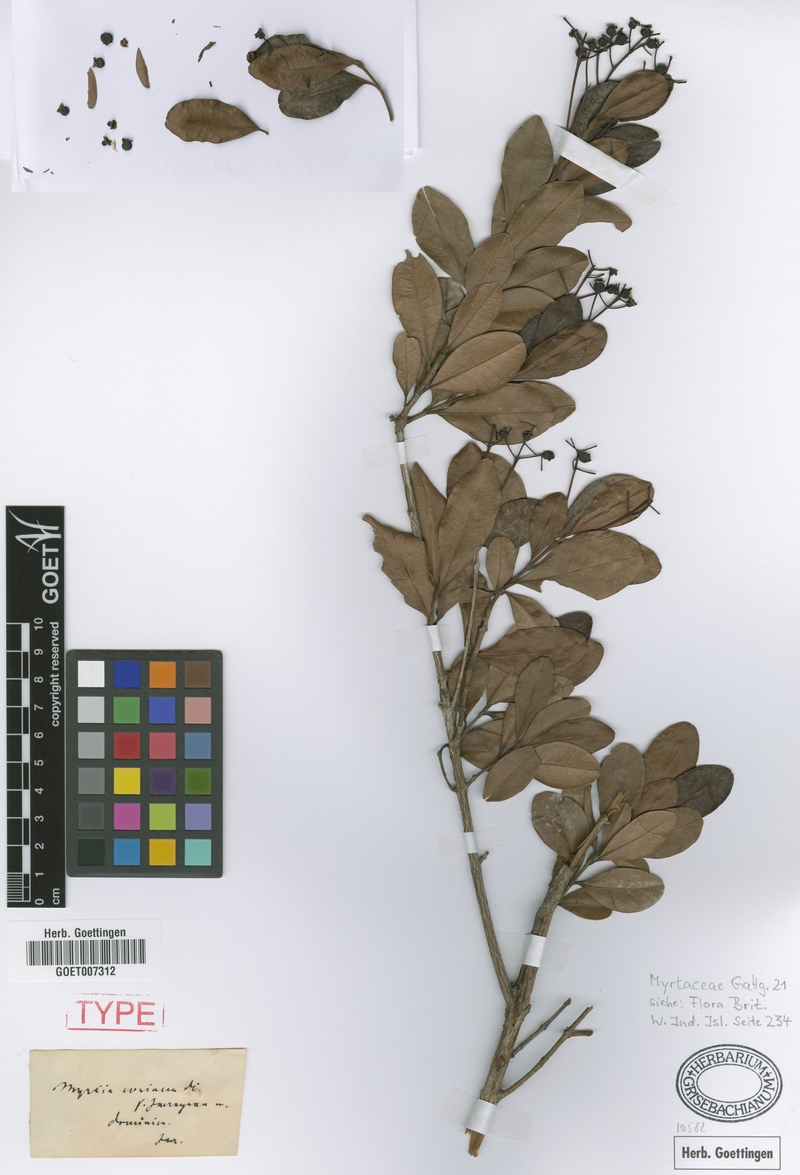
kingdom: Plantae
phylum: Tracheophyta
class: Magnoliopsida
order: Myrtales
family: Myrtaceae
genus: Myrcia
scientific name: Myrcia guianensis
